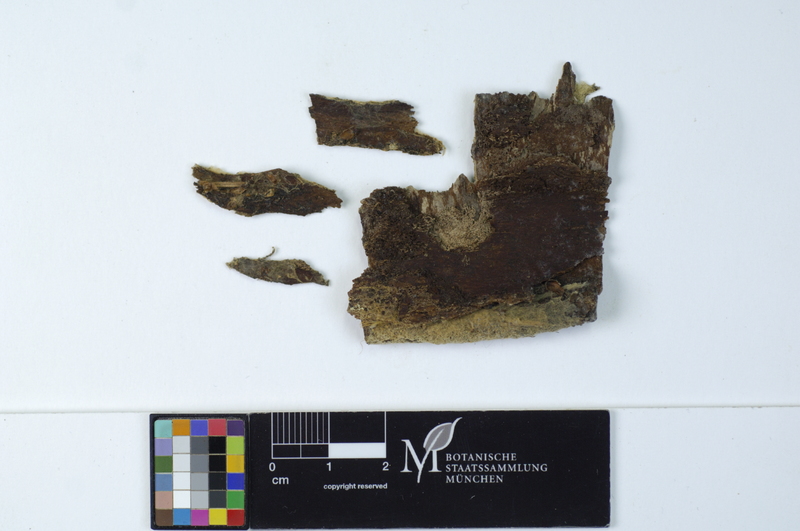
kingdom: Fungi
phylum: Basidiomycota
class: Agaricomycetes
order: Atheliales
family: Atheliaceae
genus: Amphinema
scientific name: Amphinema byssoides
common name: Cratered duster
